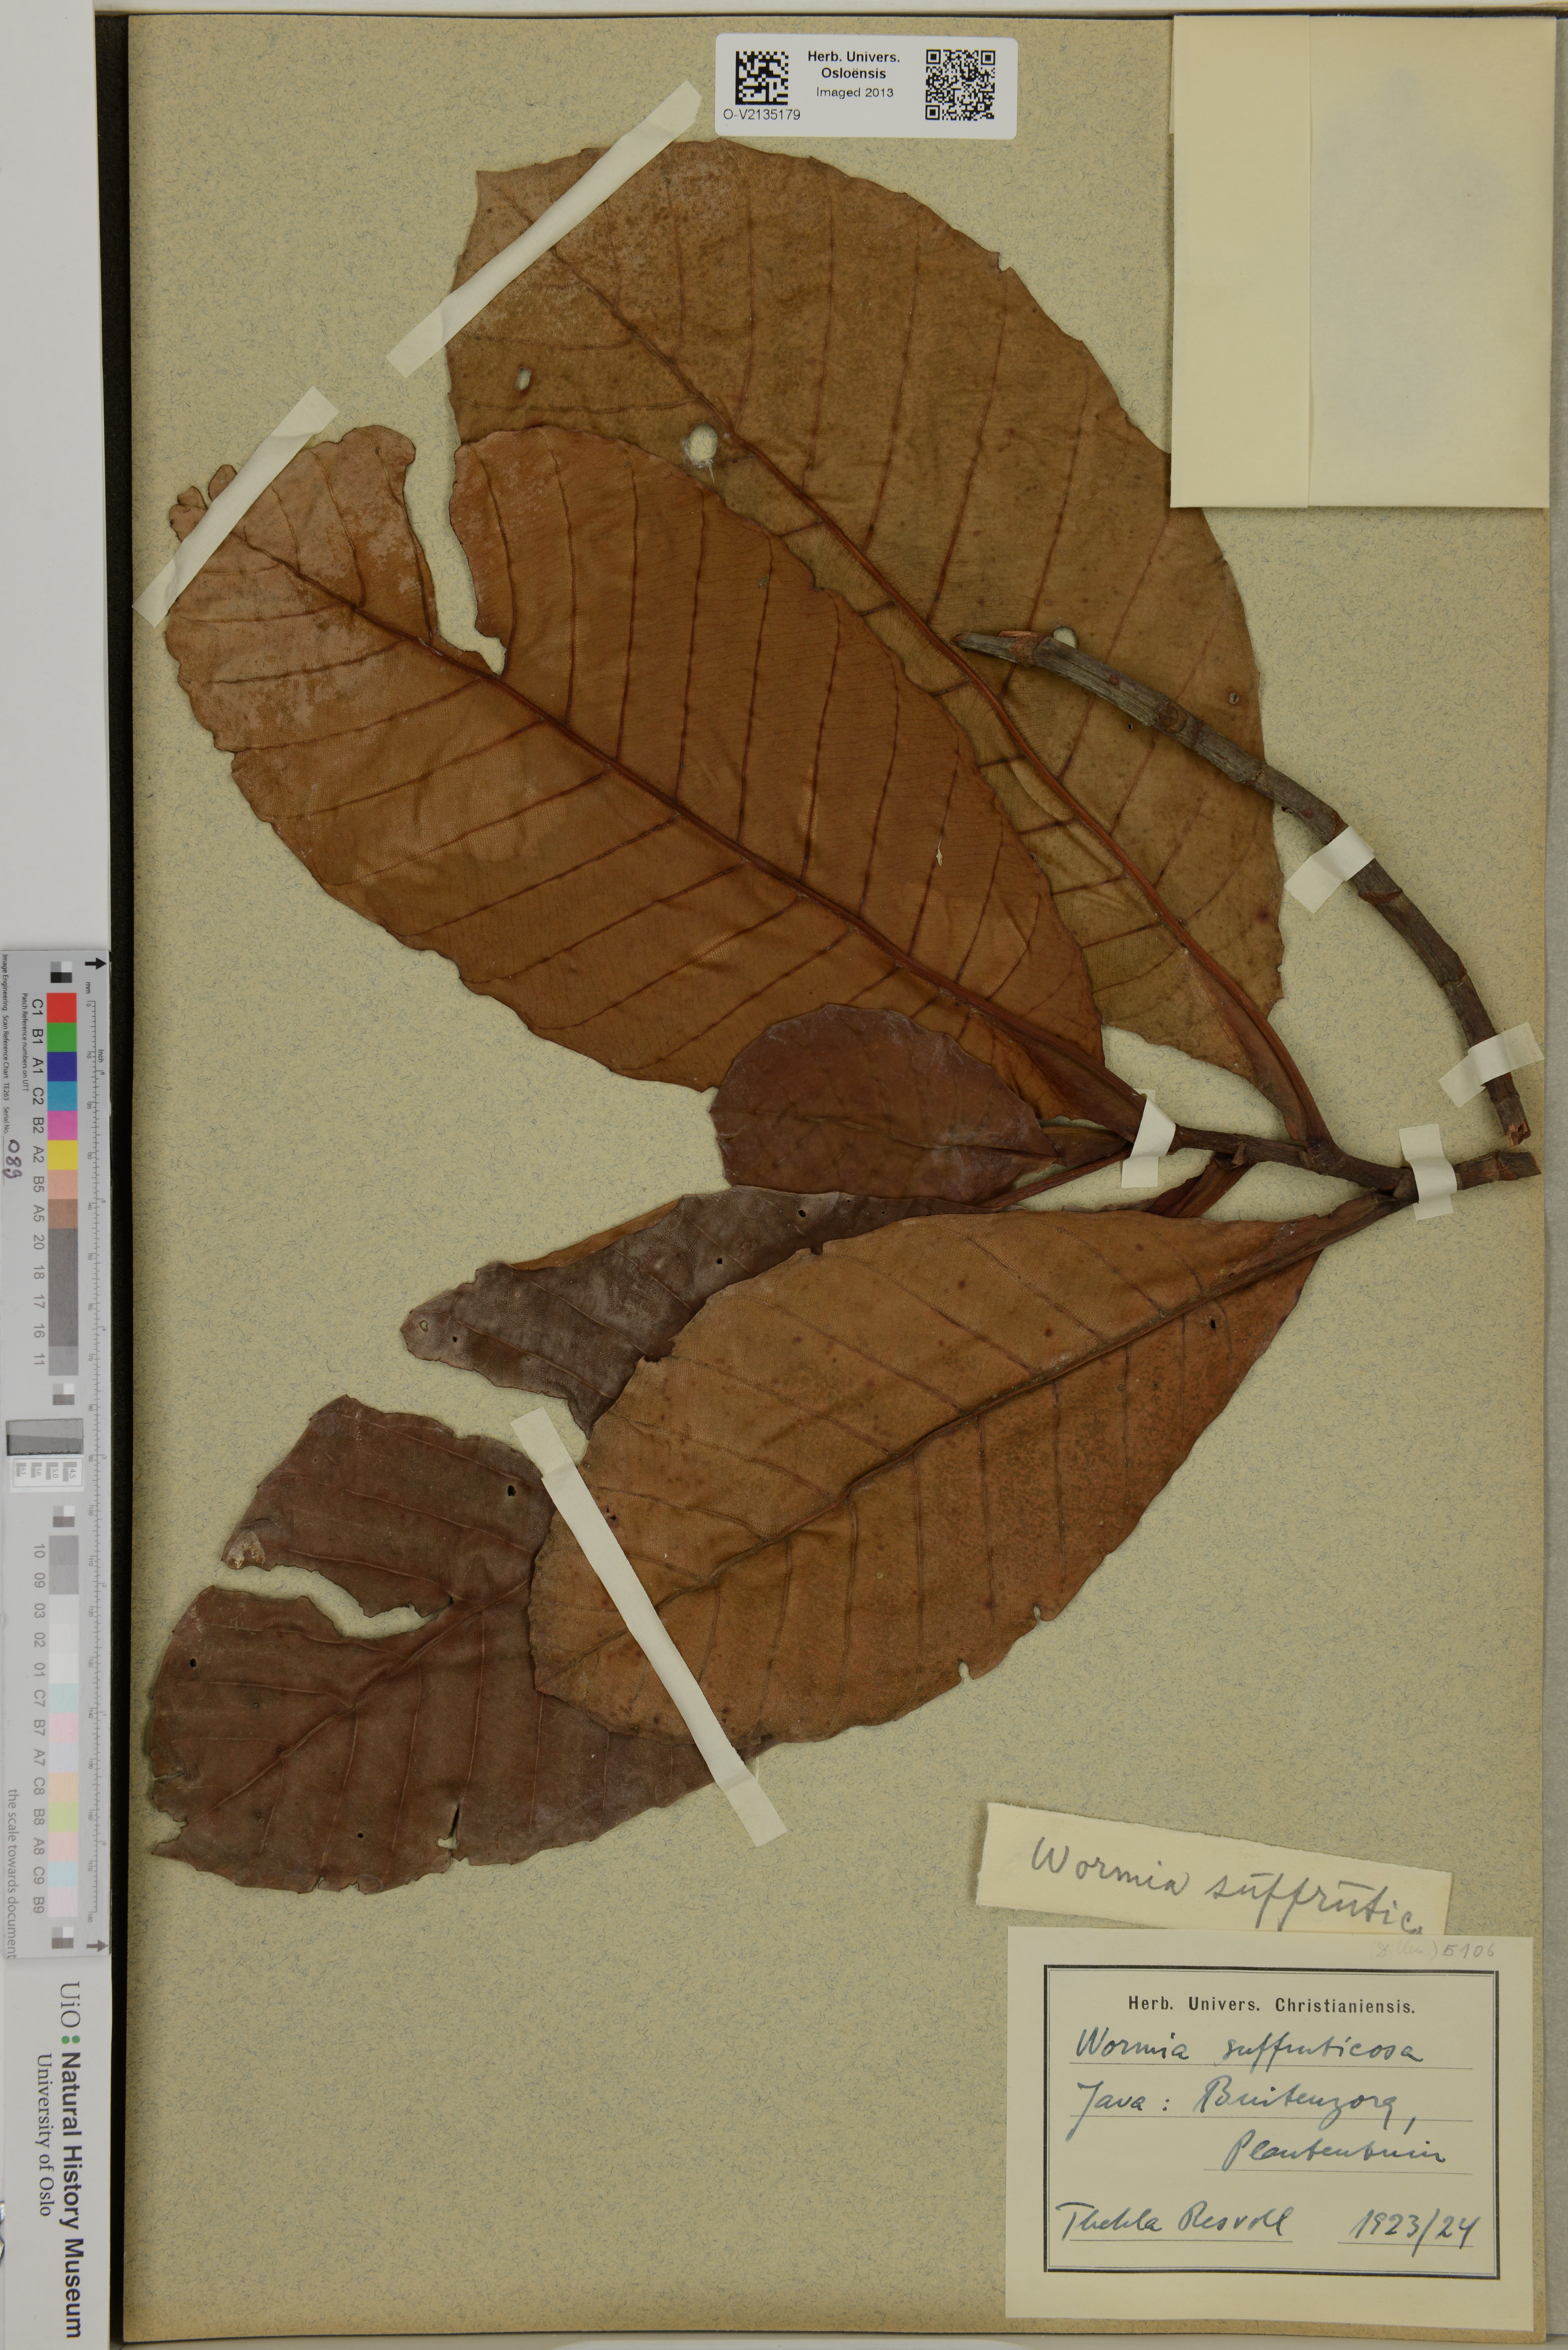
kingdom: Plantae
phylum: Tracheophyta
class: Magnoliopsida
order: Dilleniales
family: Dilleniaceae
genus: Dillenia
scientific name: Dillenia suffruticosa
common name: Shrubby dillenia
